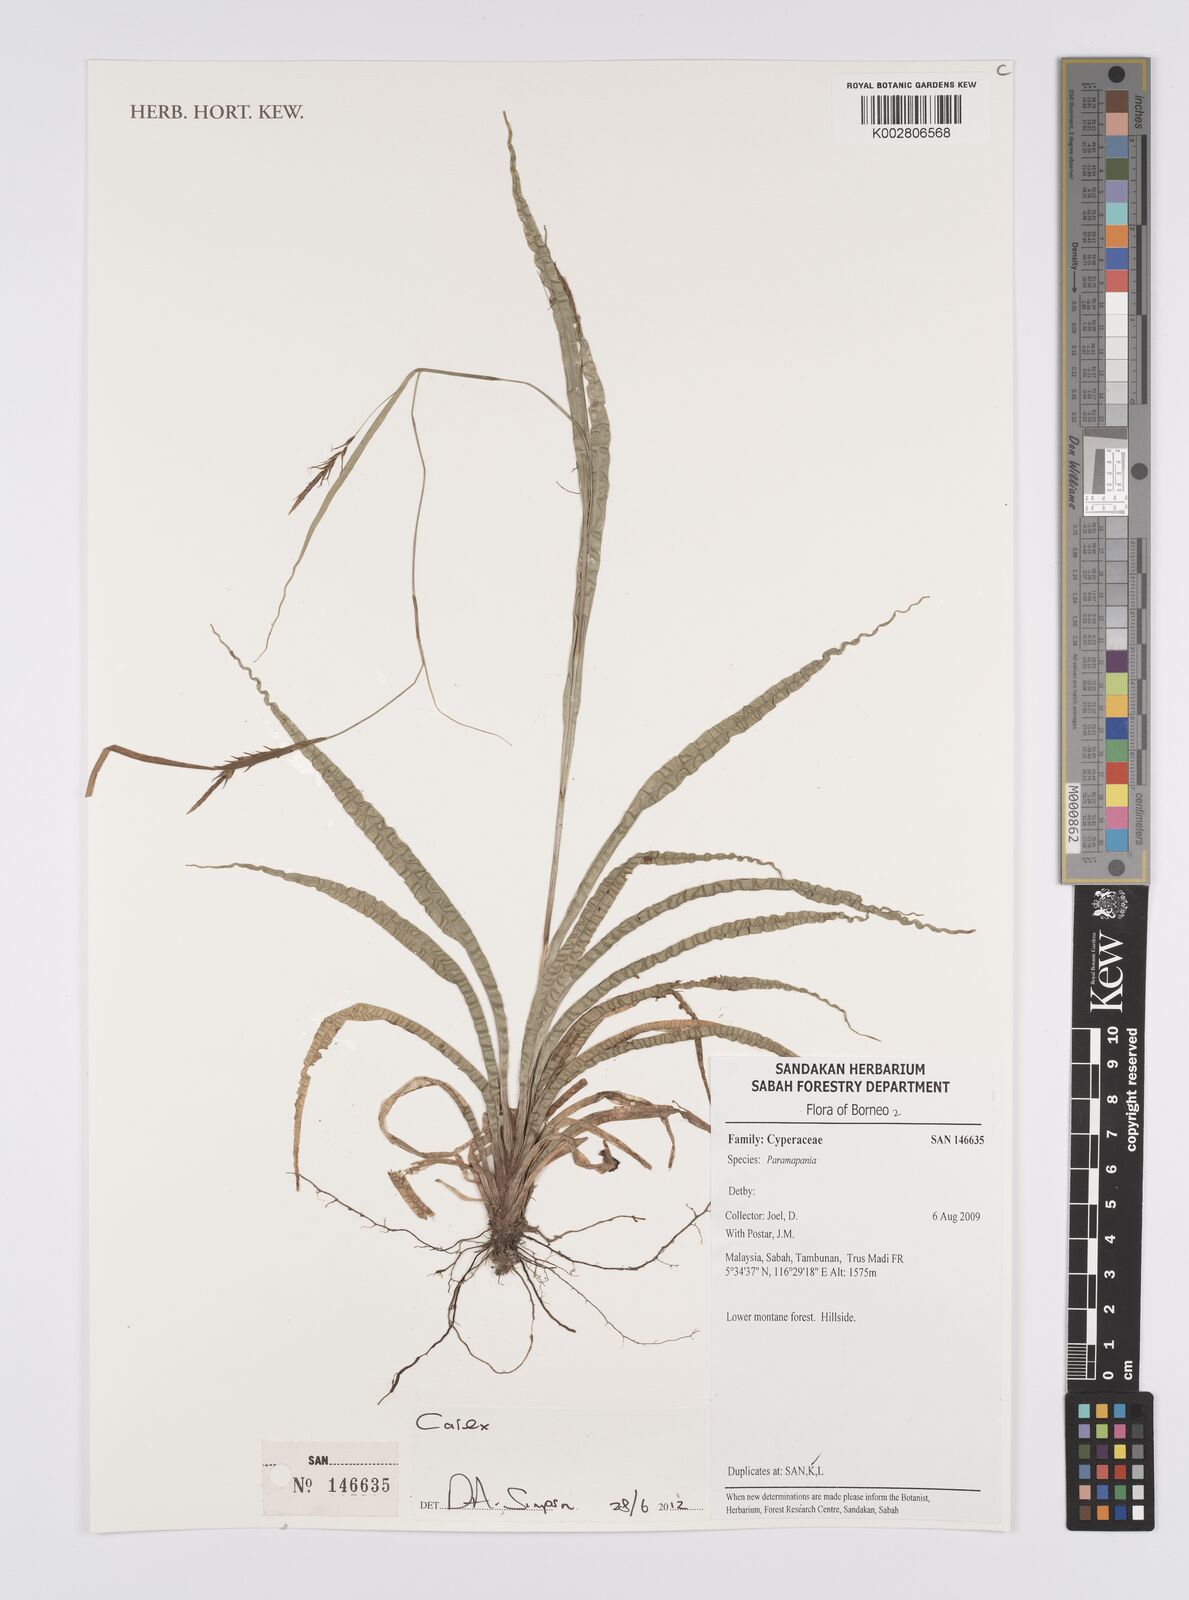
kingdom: Plantae
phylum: Tracheophyta
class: Liliopsida
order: Poales
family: Cyperaceae
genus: Carex
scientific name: Carex
